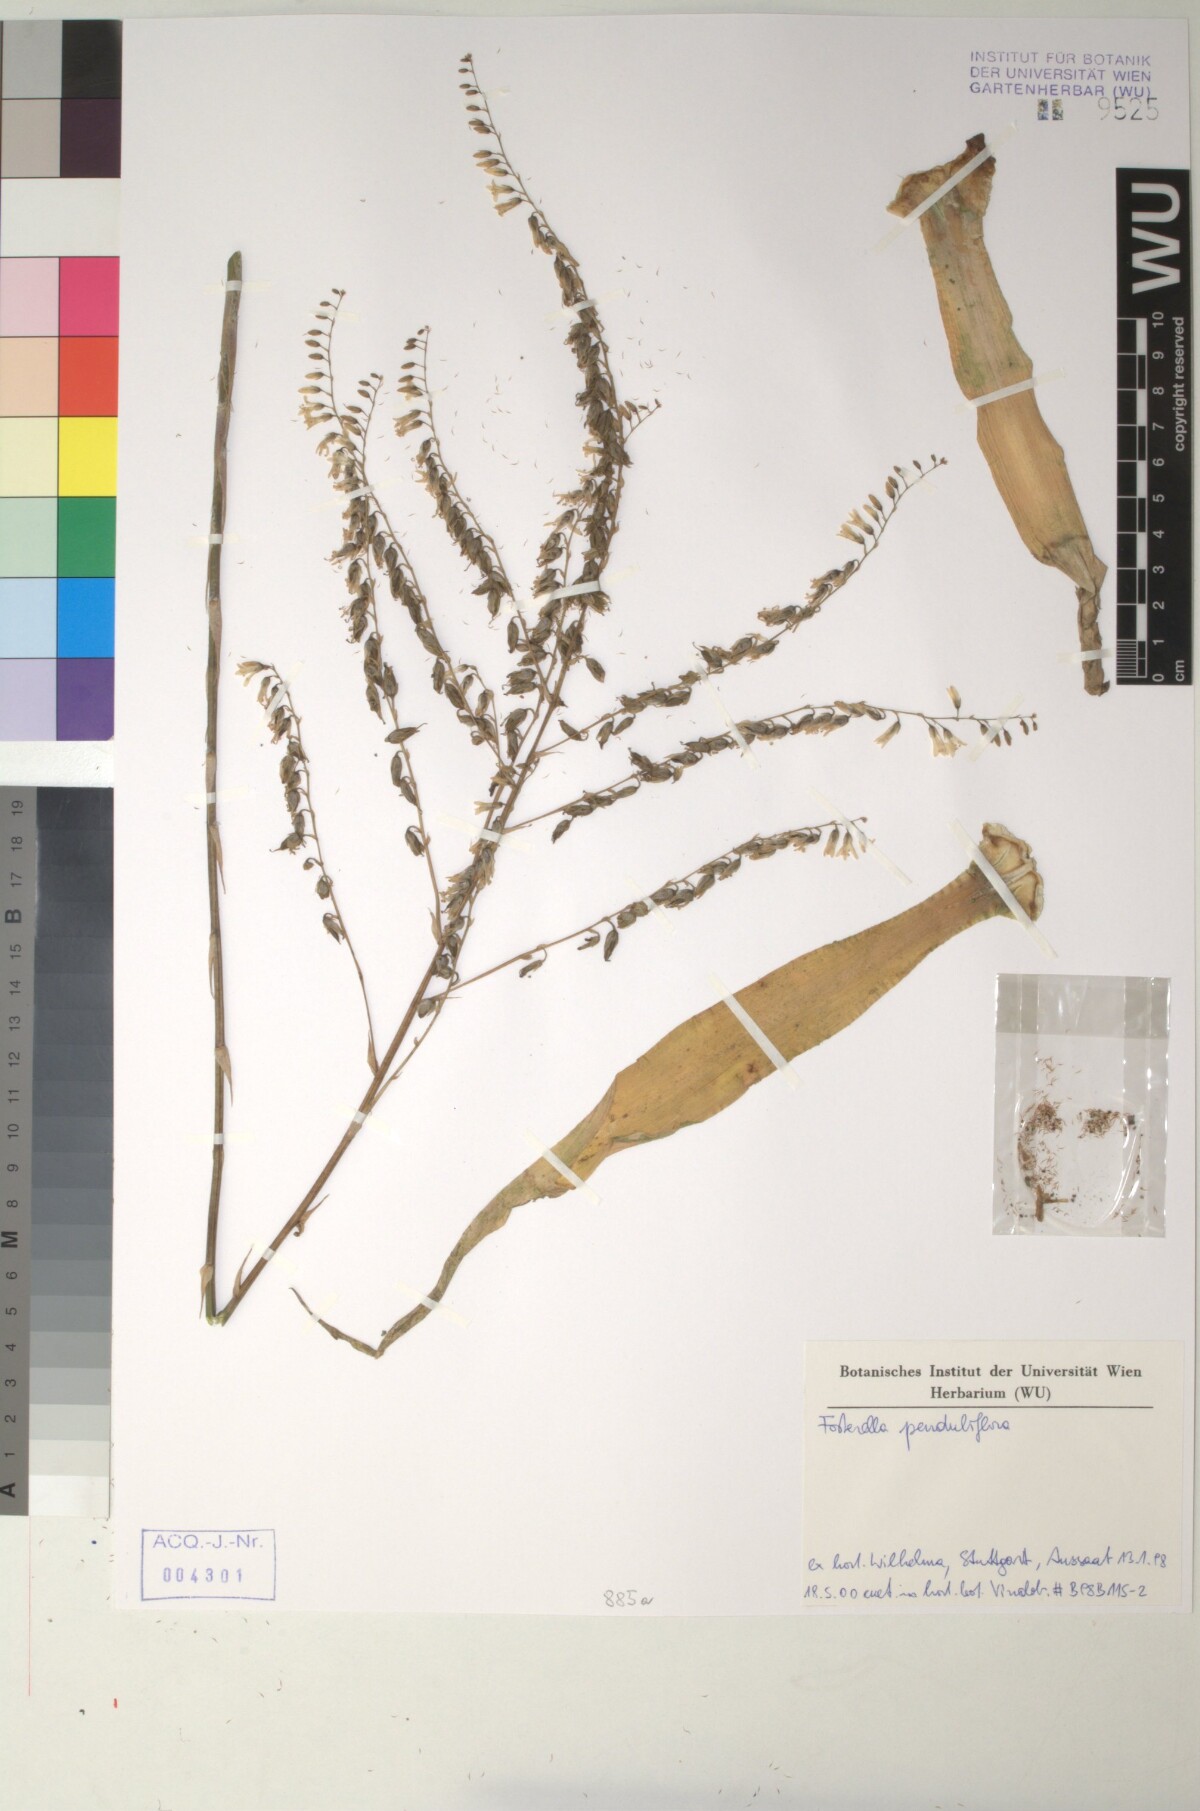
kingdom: Plantae
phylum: Tracheophyta
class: Liliopsida
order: Poales
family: Bromeliaceae
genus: Fosterella
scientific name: Fosterella penduliflora
